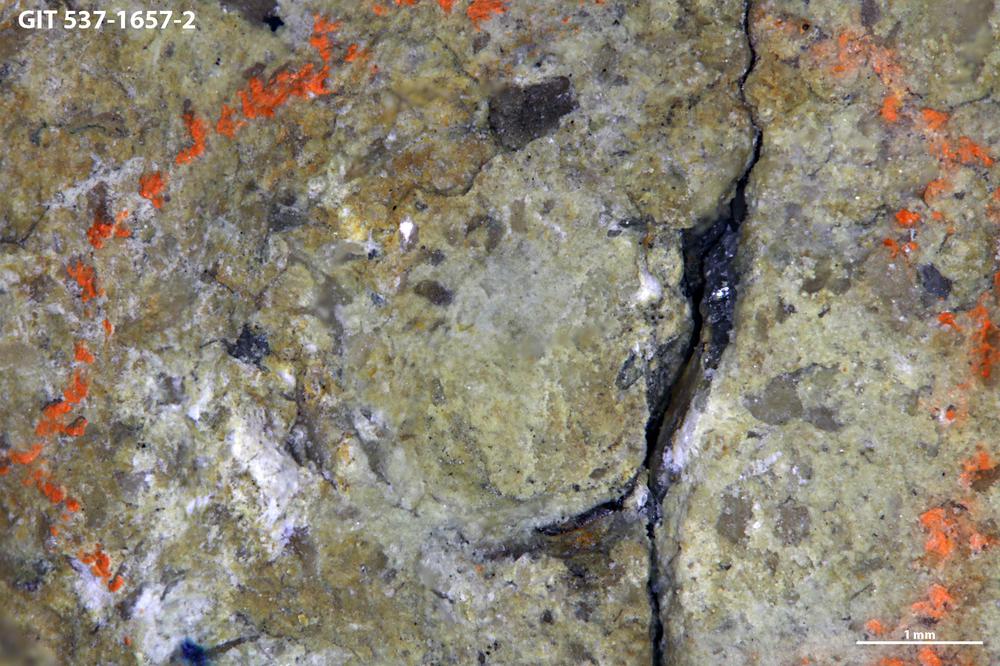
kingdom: Animalia
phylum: Cnidaria
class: Scyphozoa
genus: Climacoconus
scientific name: Climacoconus
